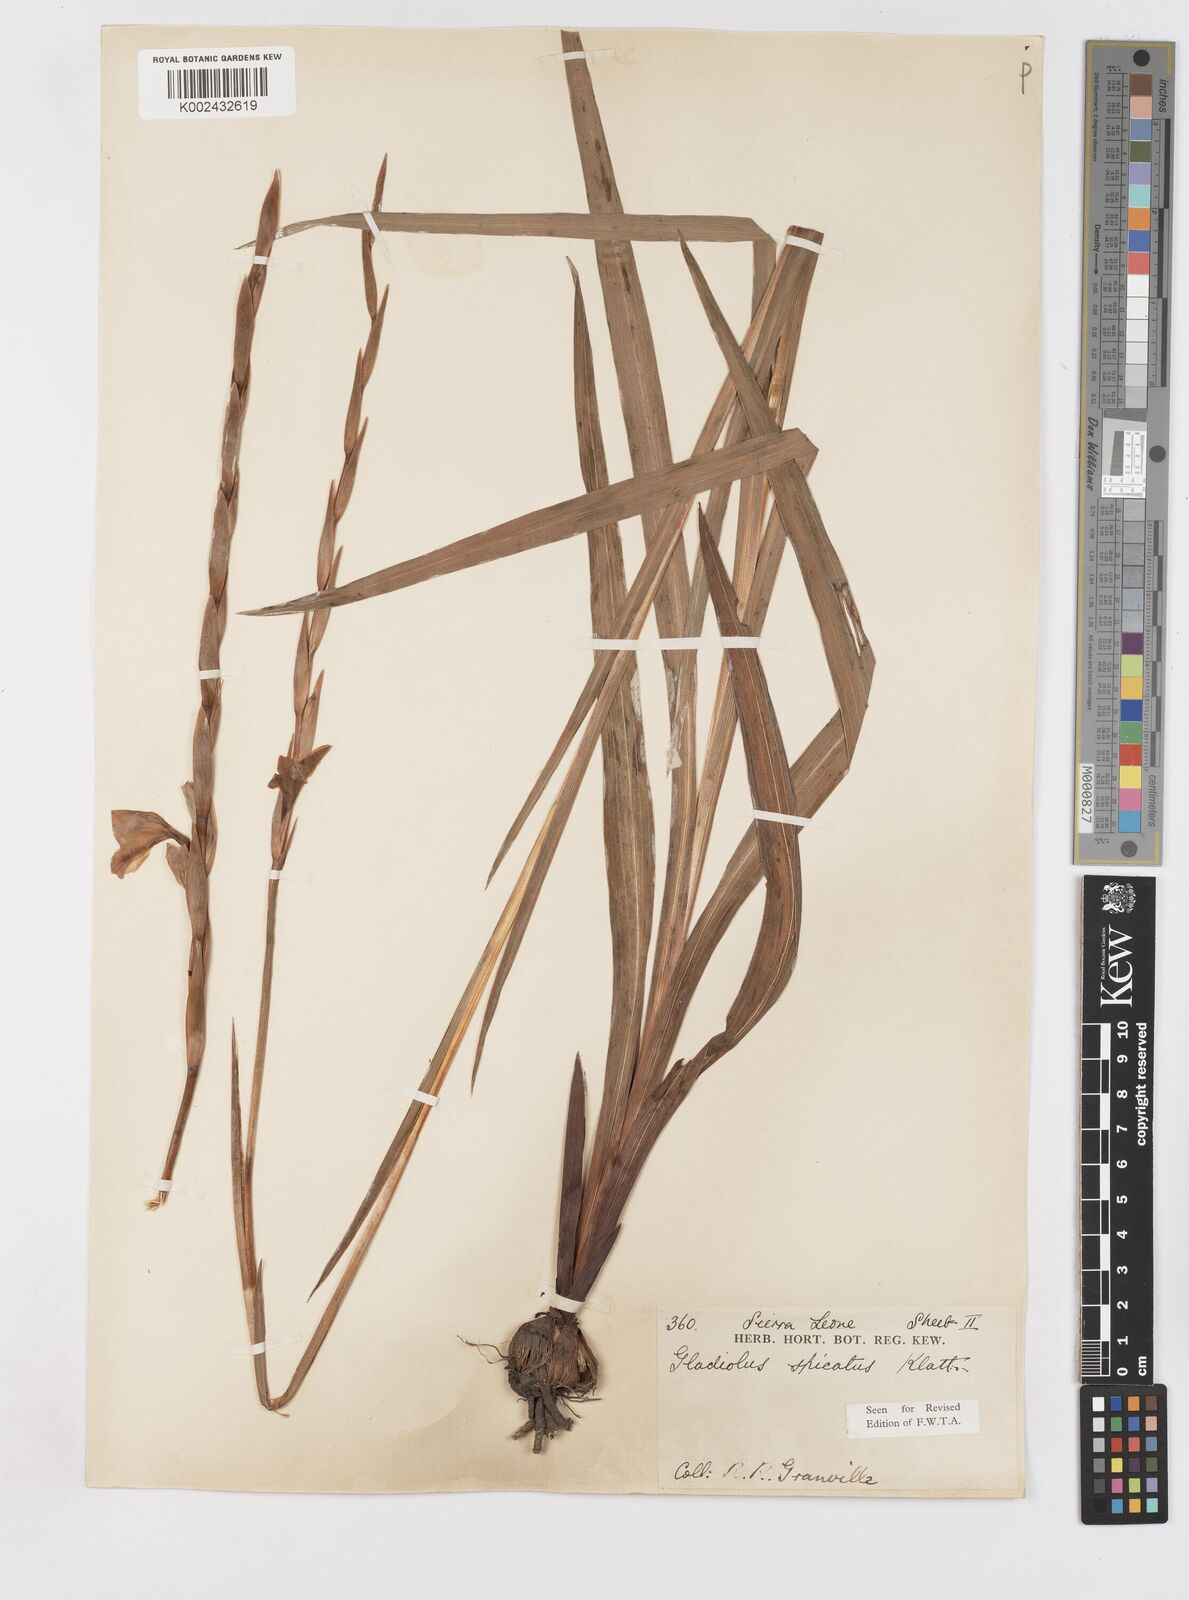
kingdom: Plantae
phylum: Tracheophyta
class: Liliopsida
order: Asparagales
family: Iridaceae
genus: Gladiolus
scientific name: Gladiolus gregarius
